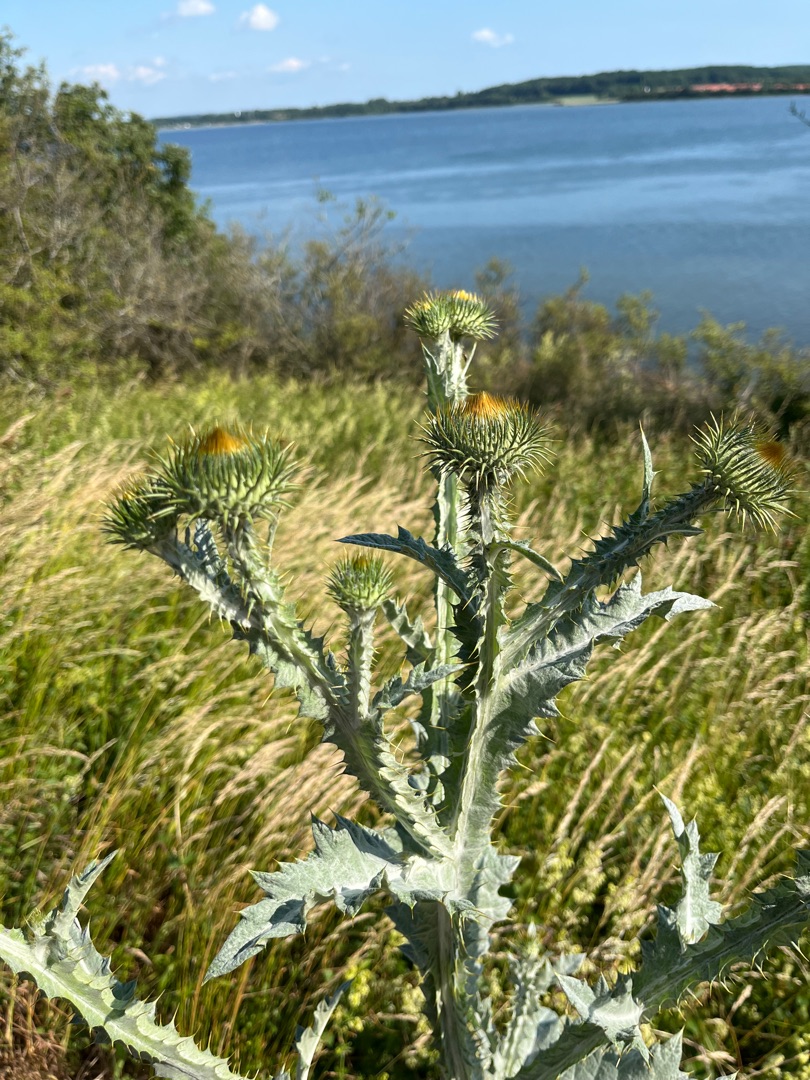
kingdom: Plantae
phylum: Tracheophyta
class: Magnoliopsida
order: Asterales
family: Asteraceae
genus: Onopordum
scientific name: Onopordum acanthium
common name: Æselfoder
